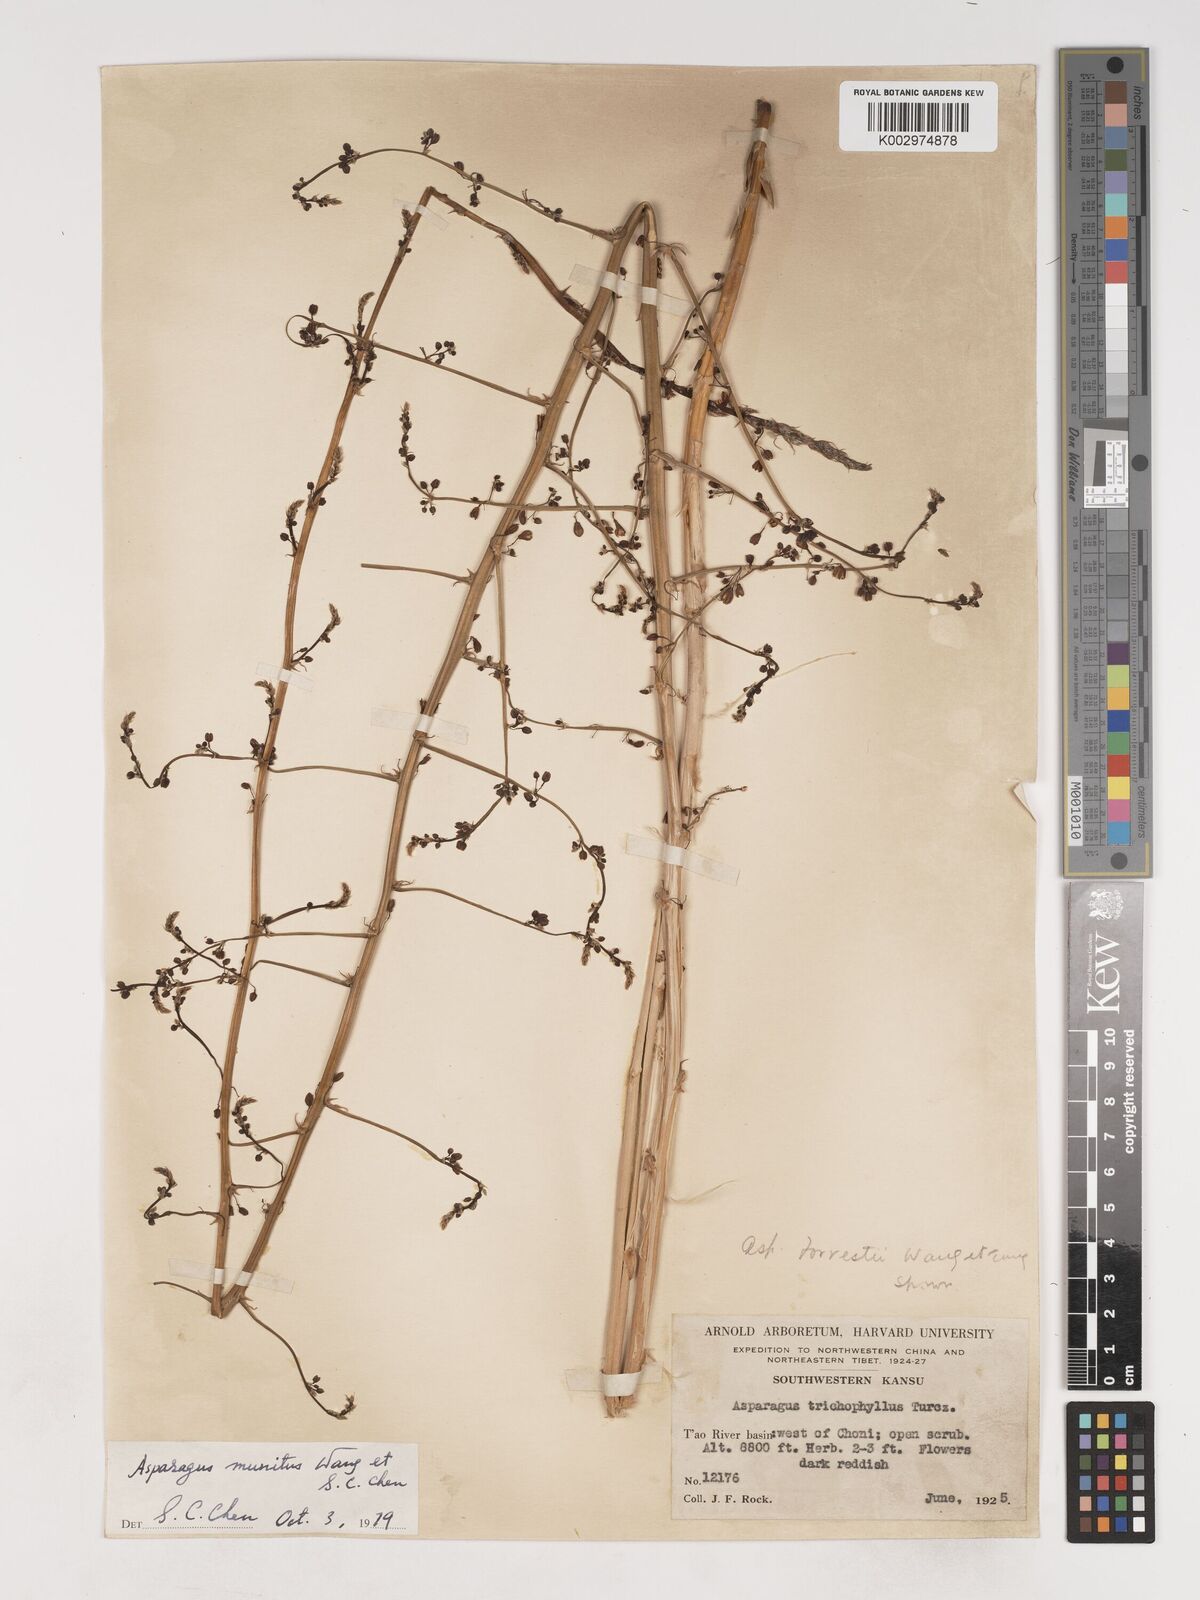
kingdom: Plantae
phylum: Tracheophyta
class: Liliopsida
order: Asparagales
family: Asparagaceae
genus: Asparagus
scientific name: Asparagus
